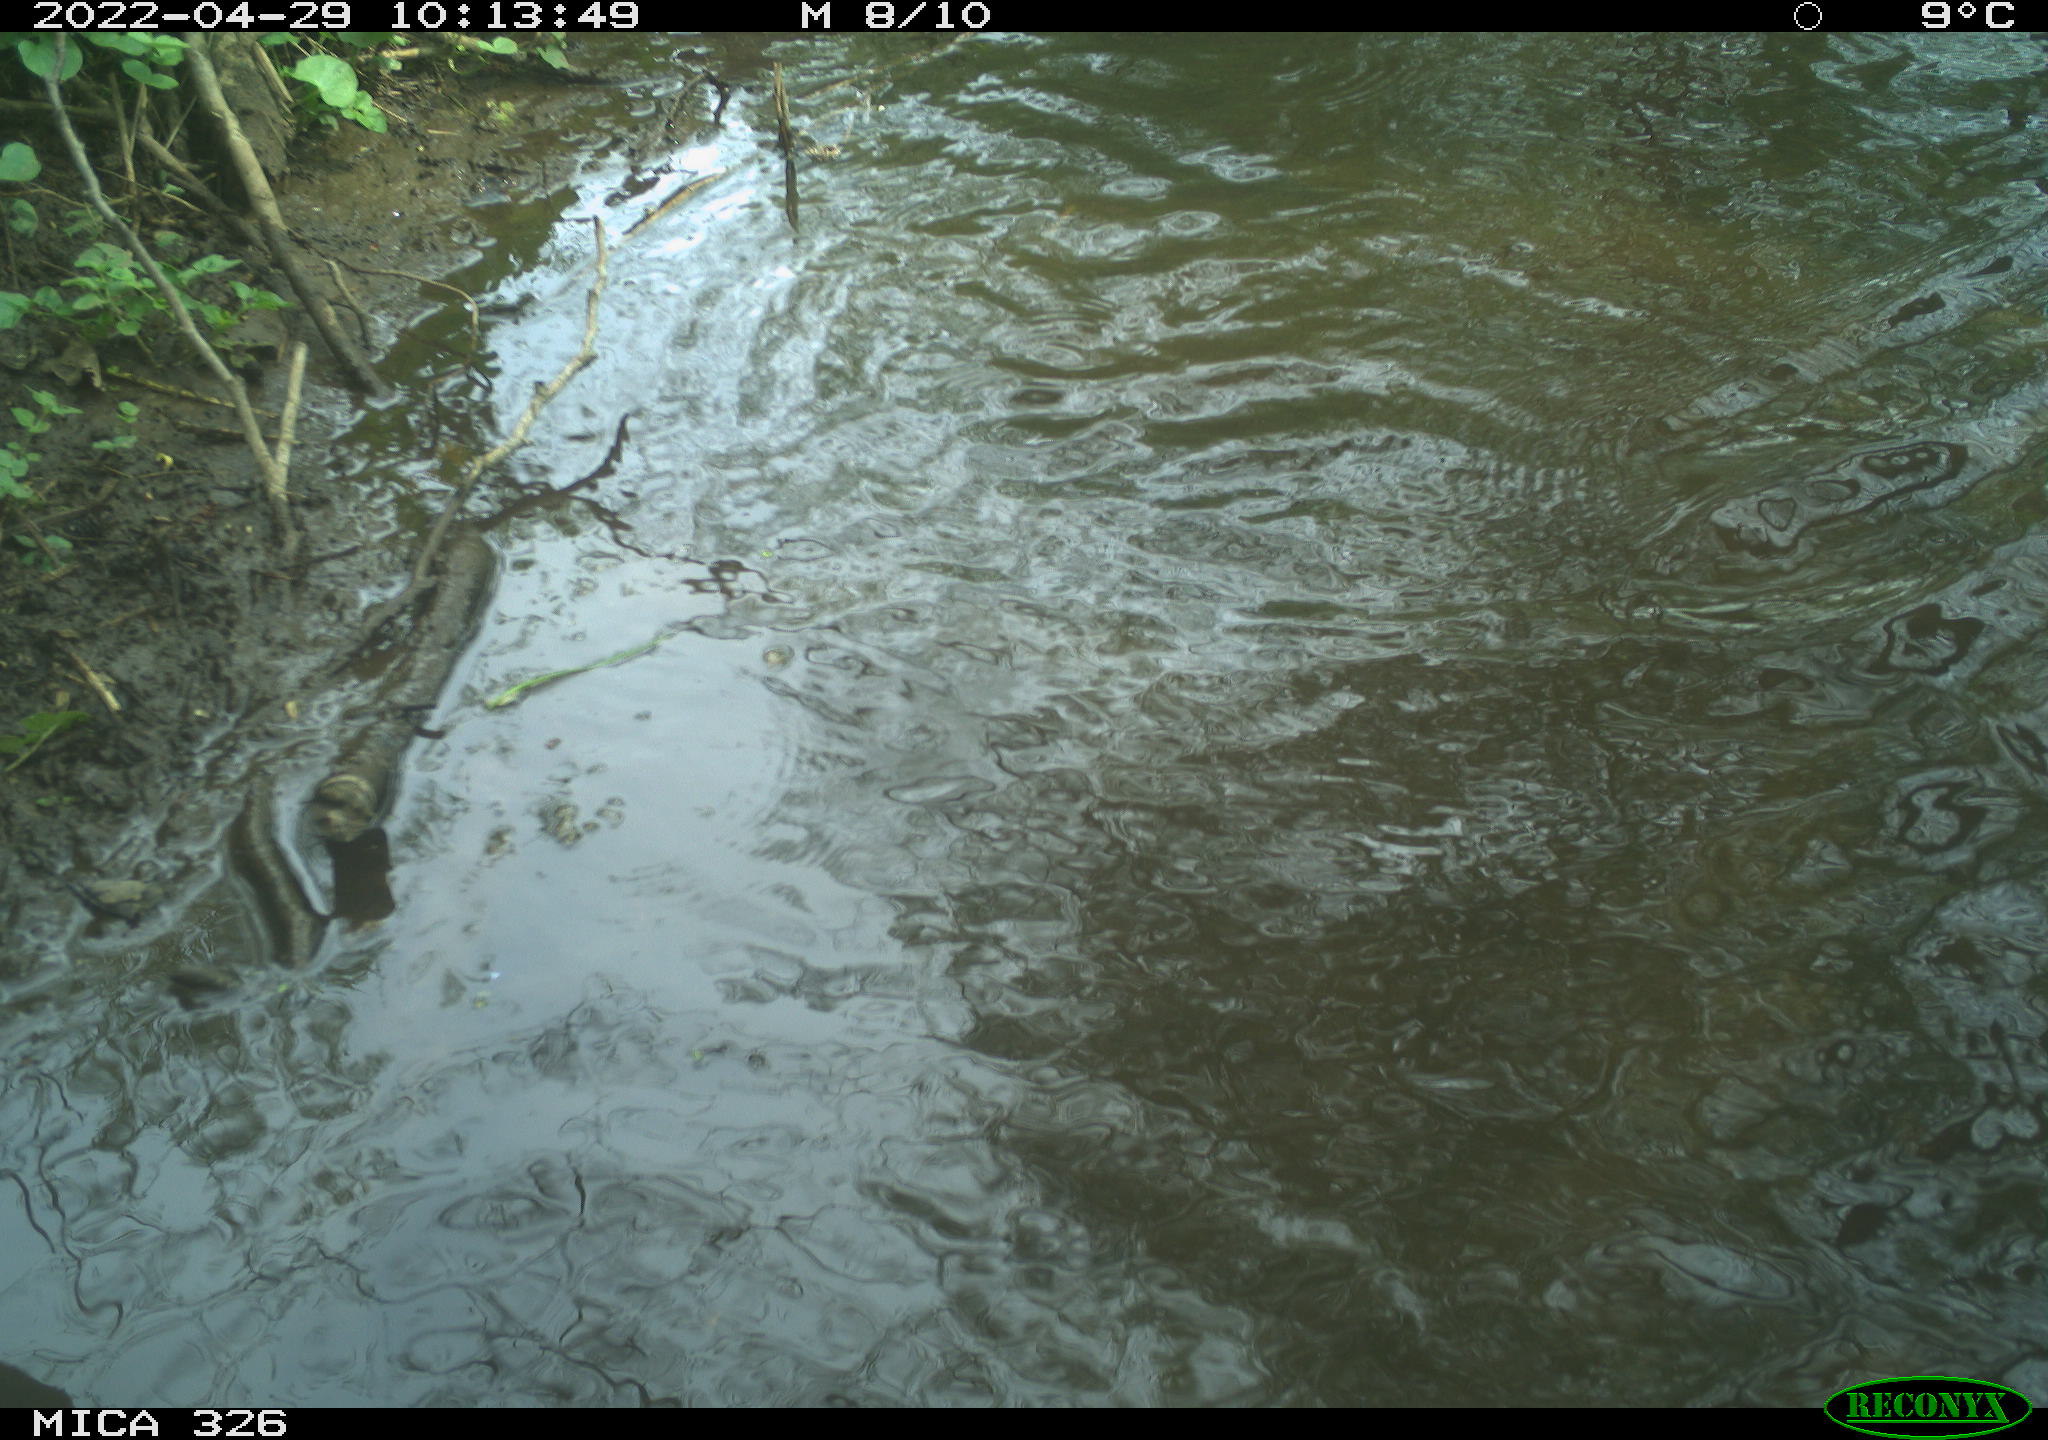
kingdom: Animalia
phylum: Chordata
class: Mammalia
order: Rodentia
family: Cricetidae
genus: Ondatra
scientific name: Ondatra zibethicus
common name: Muskrat
